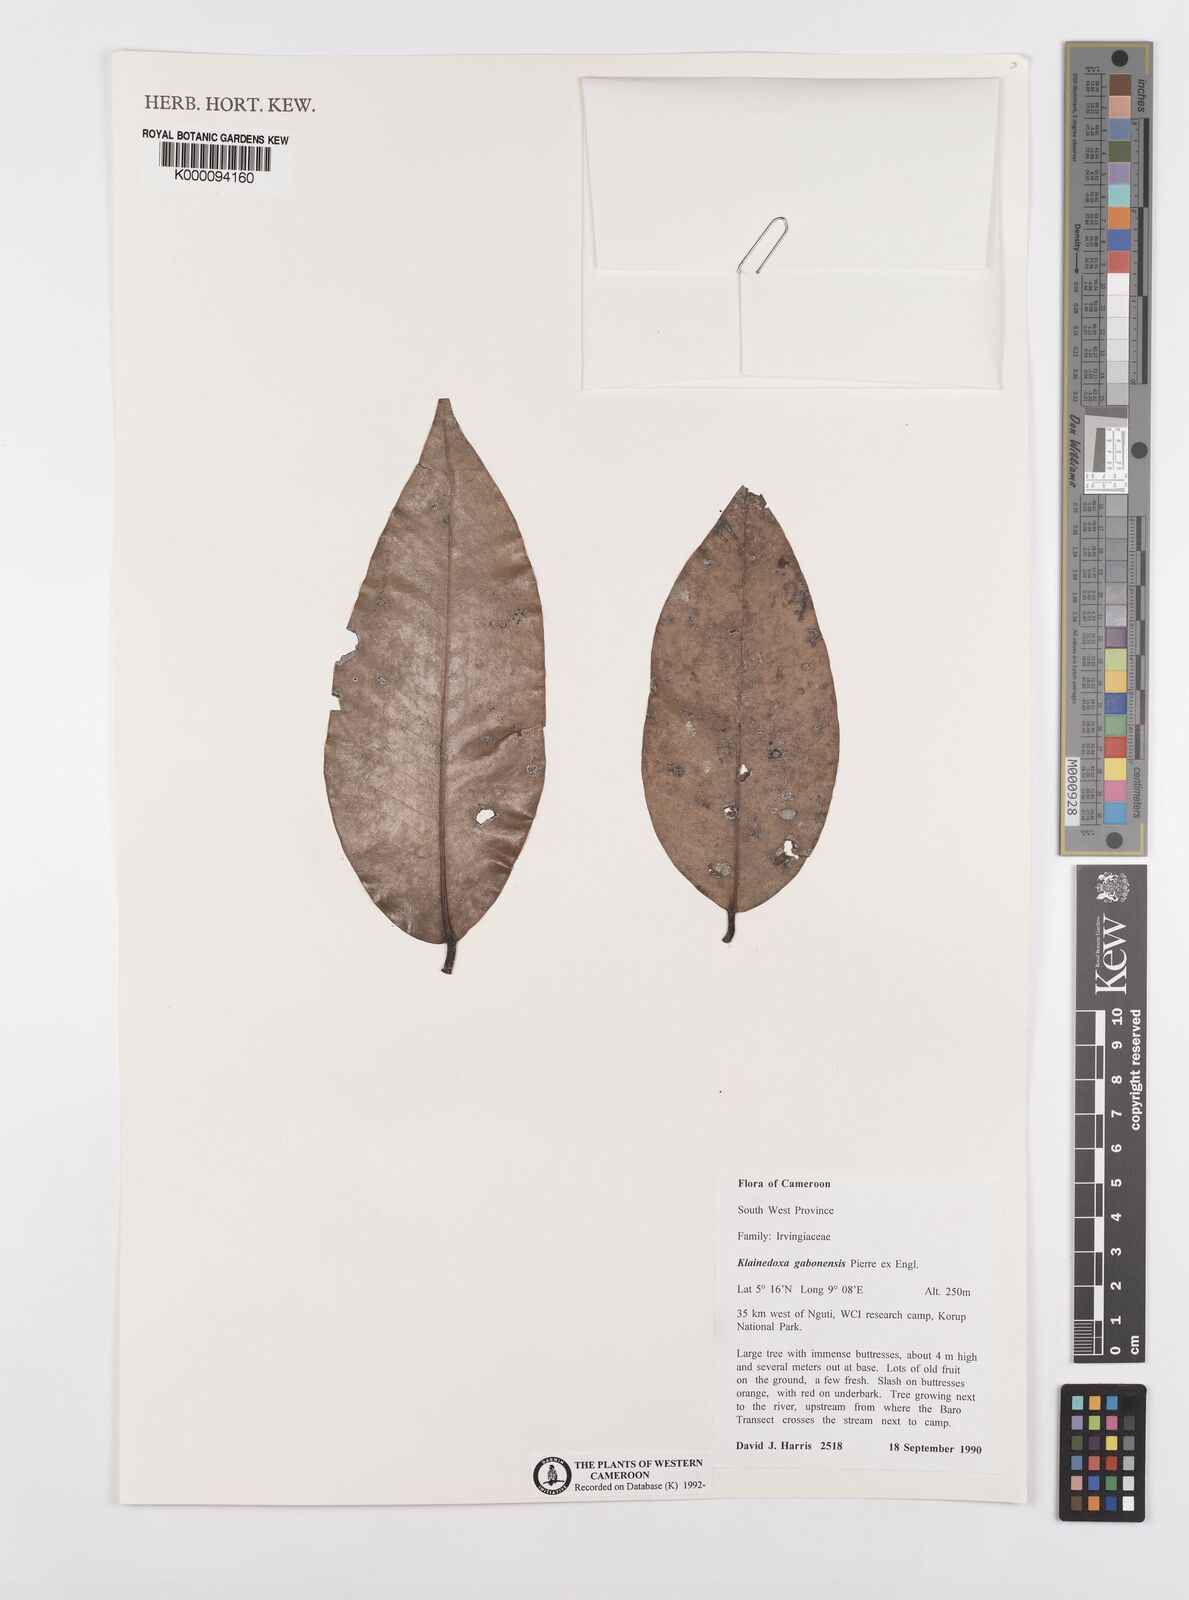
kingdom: Plantae
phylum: Tracheophyta
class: Magnoliopsida
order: Malpighiales
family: Irvingiaceae
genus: Klainedoxa
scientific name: Klainedoxa gabonensis
